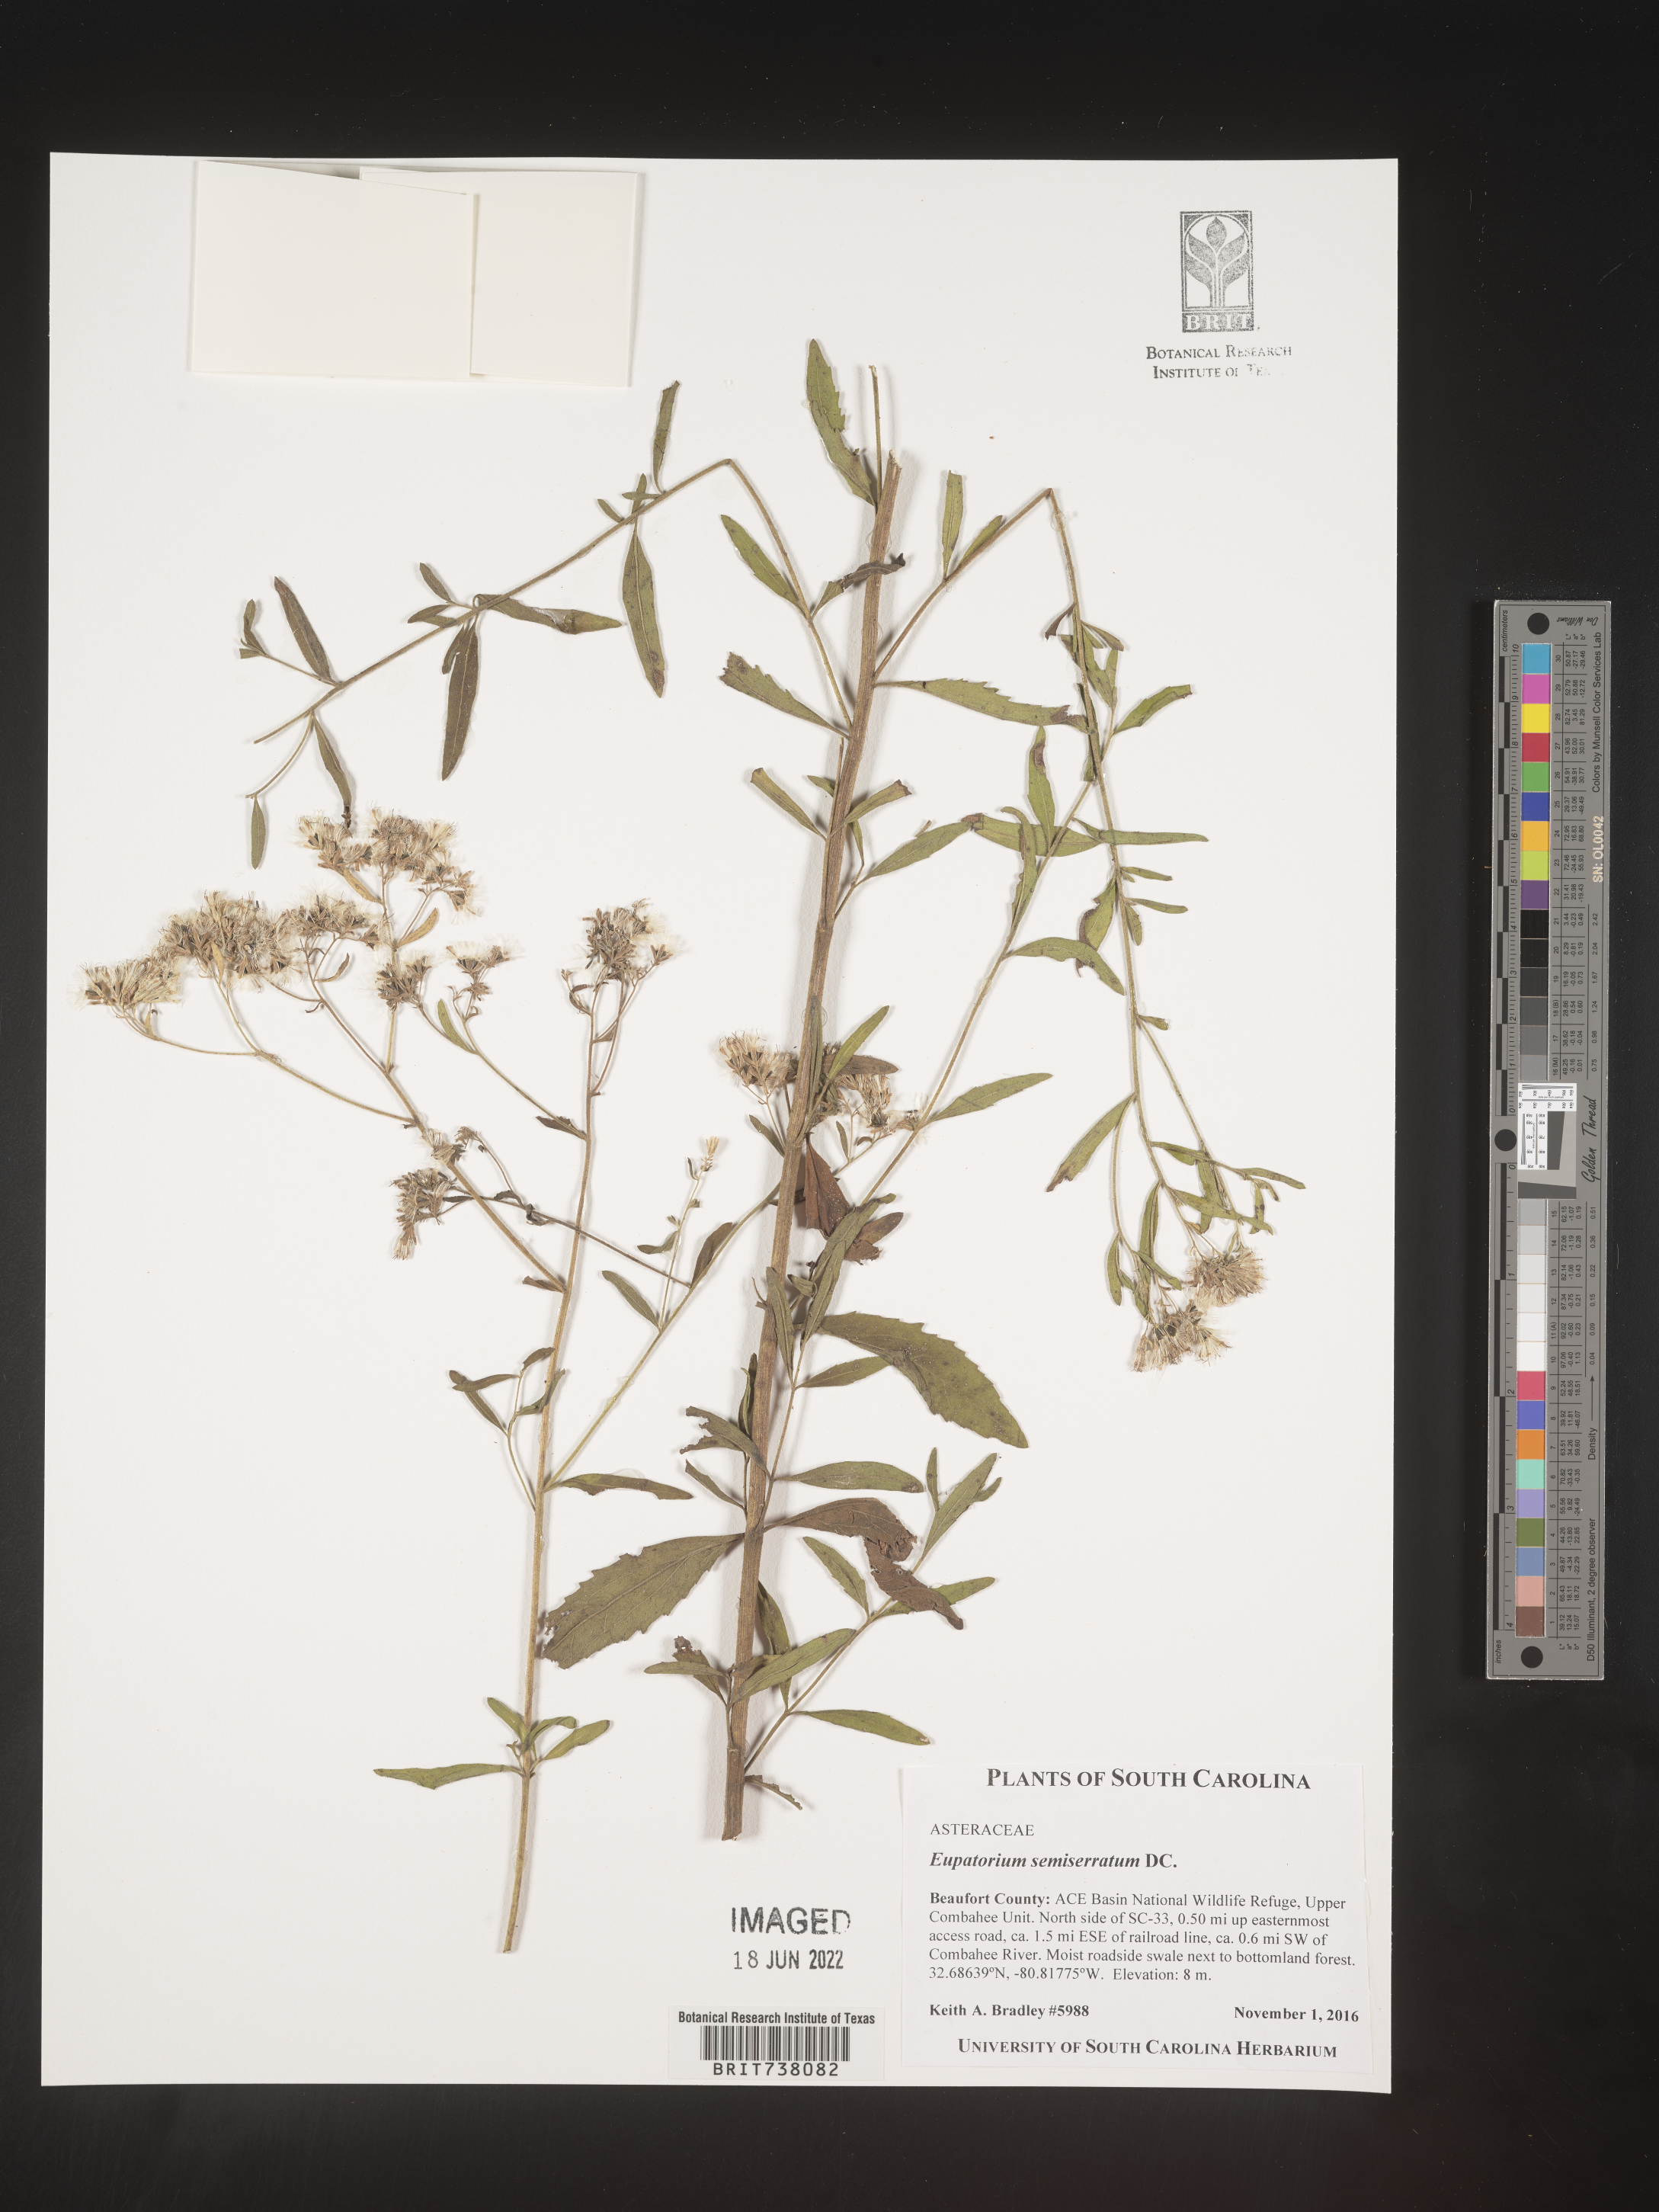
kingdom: Plantae
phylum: Tracheophyta
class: Magnoliopsida
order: Asterales
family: Asteraceae
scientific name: Asteraceae
